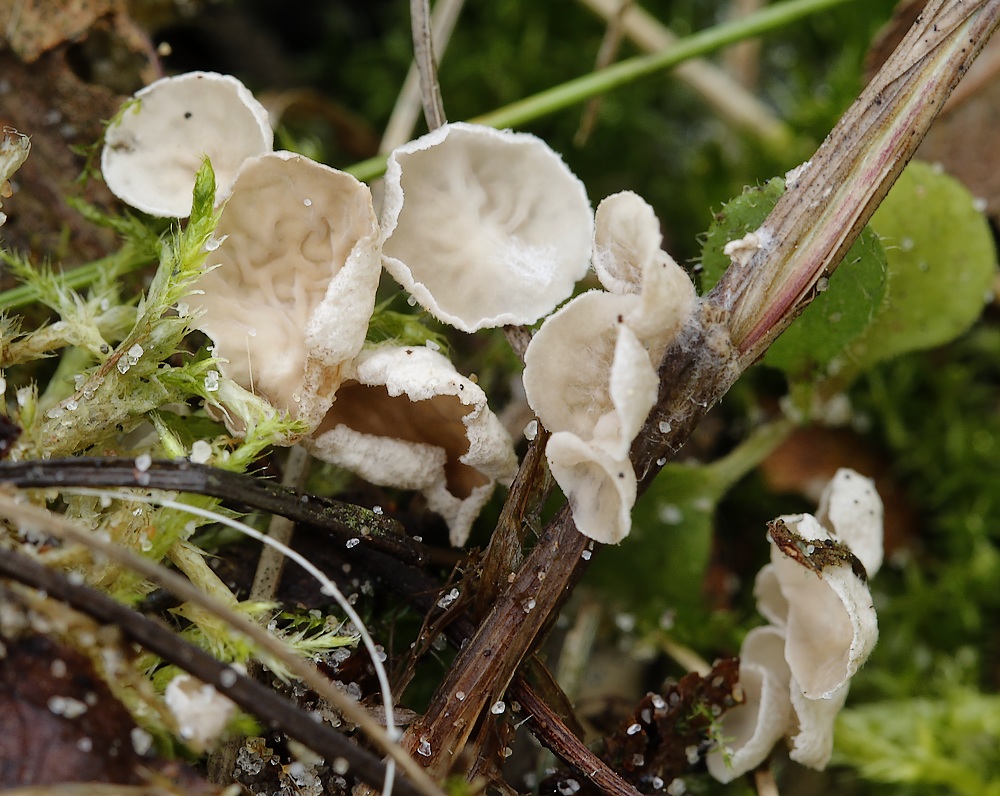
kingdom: Fungi
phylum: Basidiomycota
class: Agaricomycetes
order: Agaricales
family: Hygrophoraceae
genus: Arrhenia
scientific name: Arrhenia retiruga
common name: lille fontænehat
